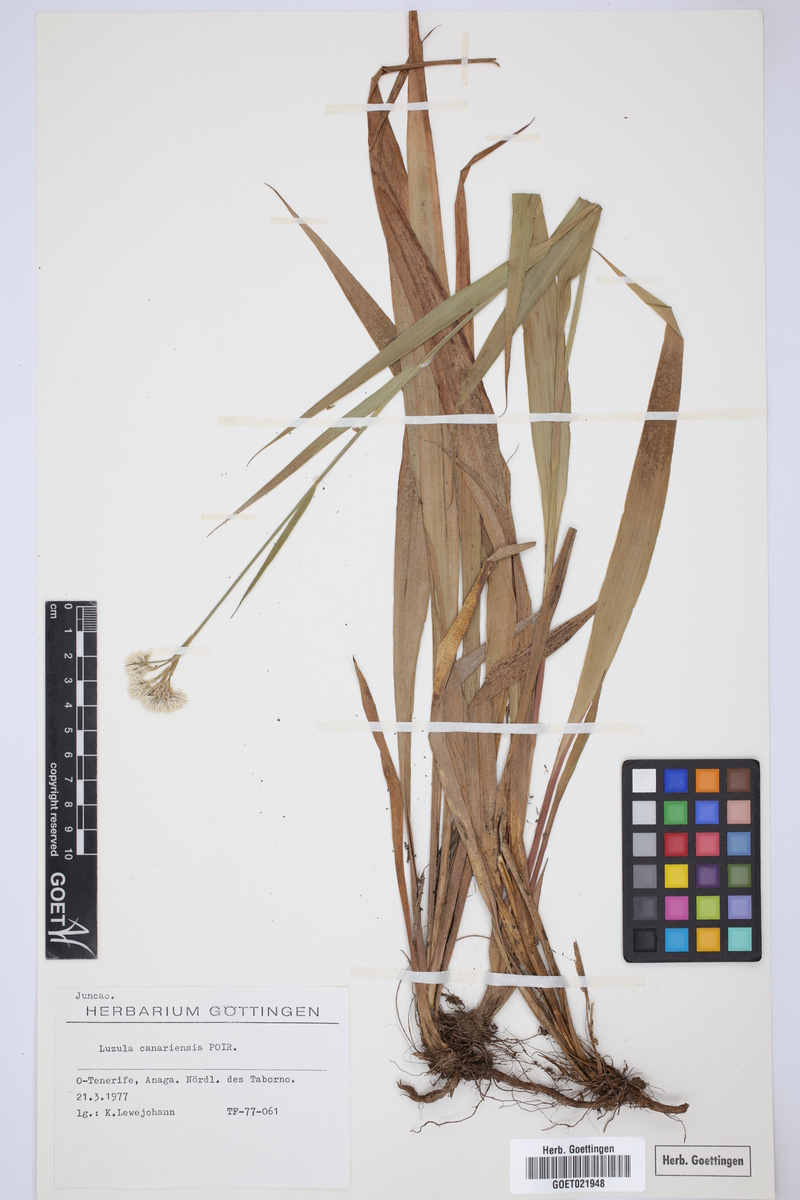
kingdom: Plantae
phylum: Tracheophyta
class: Liliopsida
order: Poales
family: Juncaceae
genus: Luzula
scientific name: Luzula canariensis
